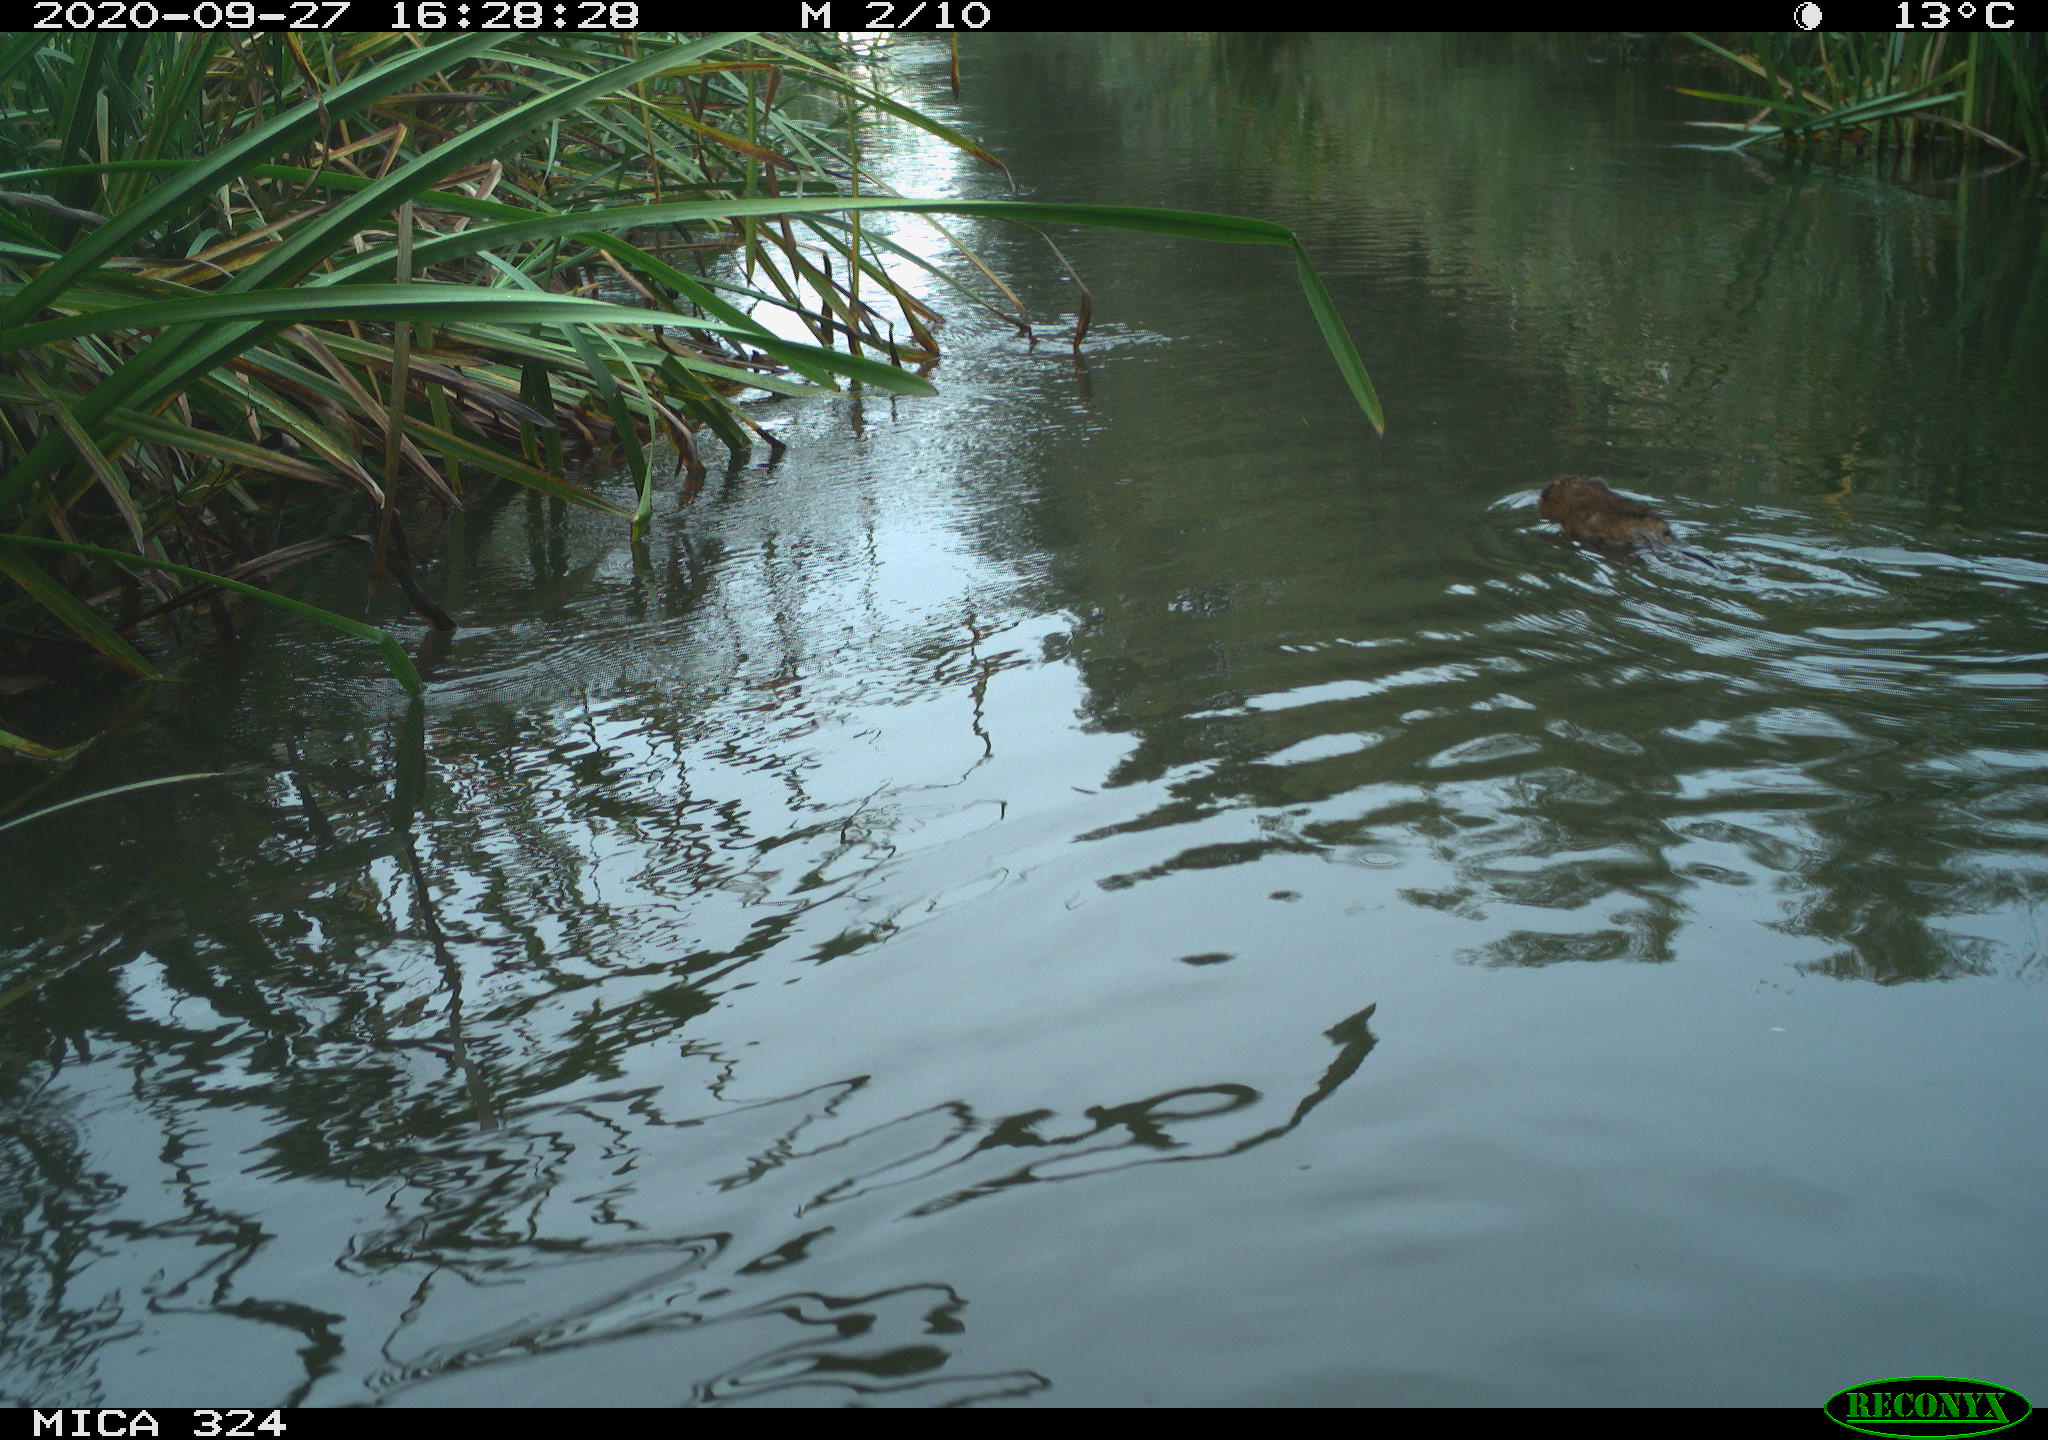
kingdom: Animalia
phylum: Chordata
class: Mammalia
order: Rodentia
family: Cricetidae
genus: Ondatra
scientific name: Ondatra zibethicus
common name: Muskrat
